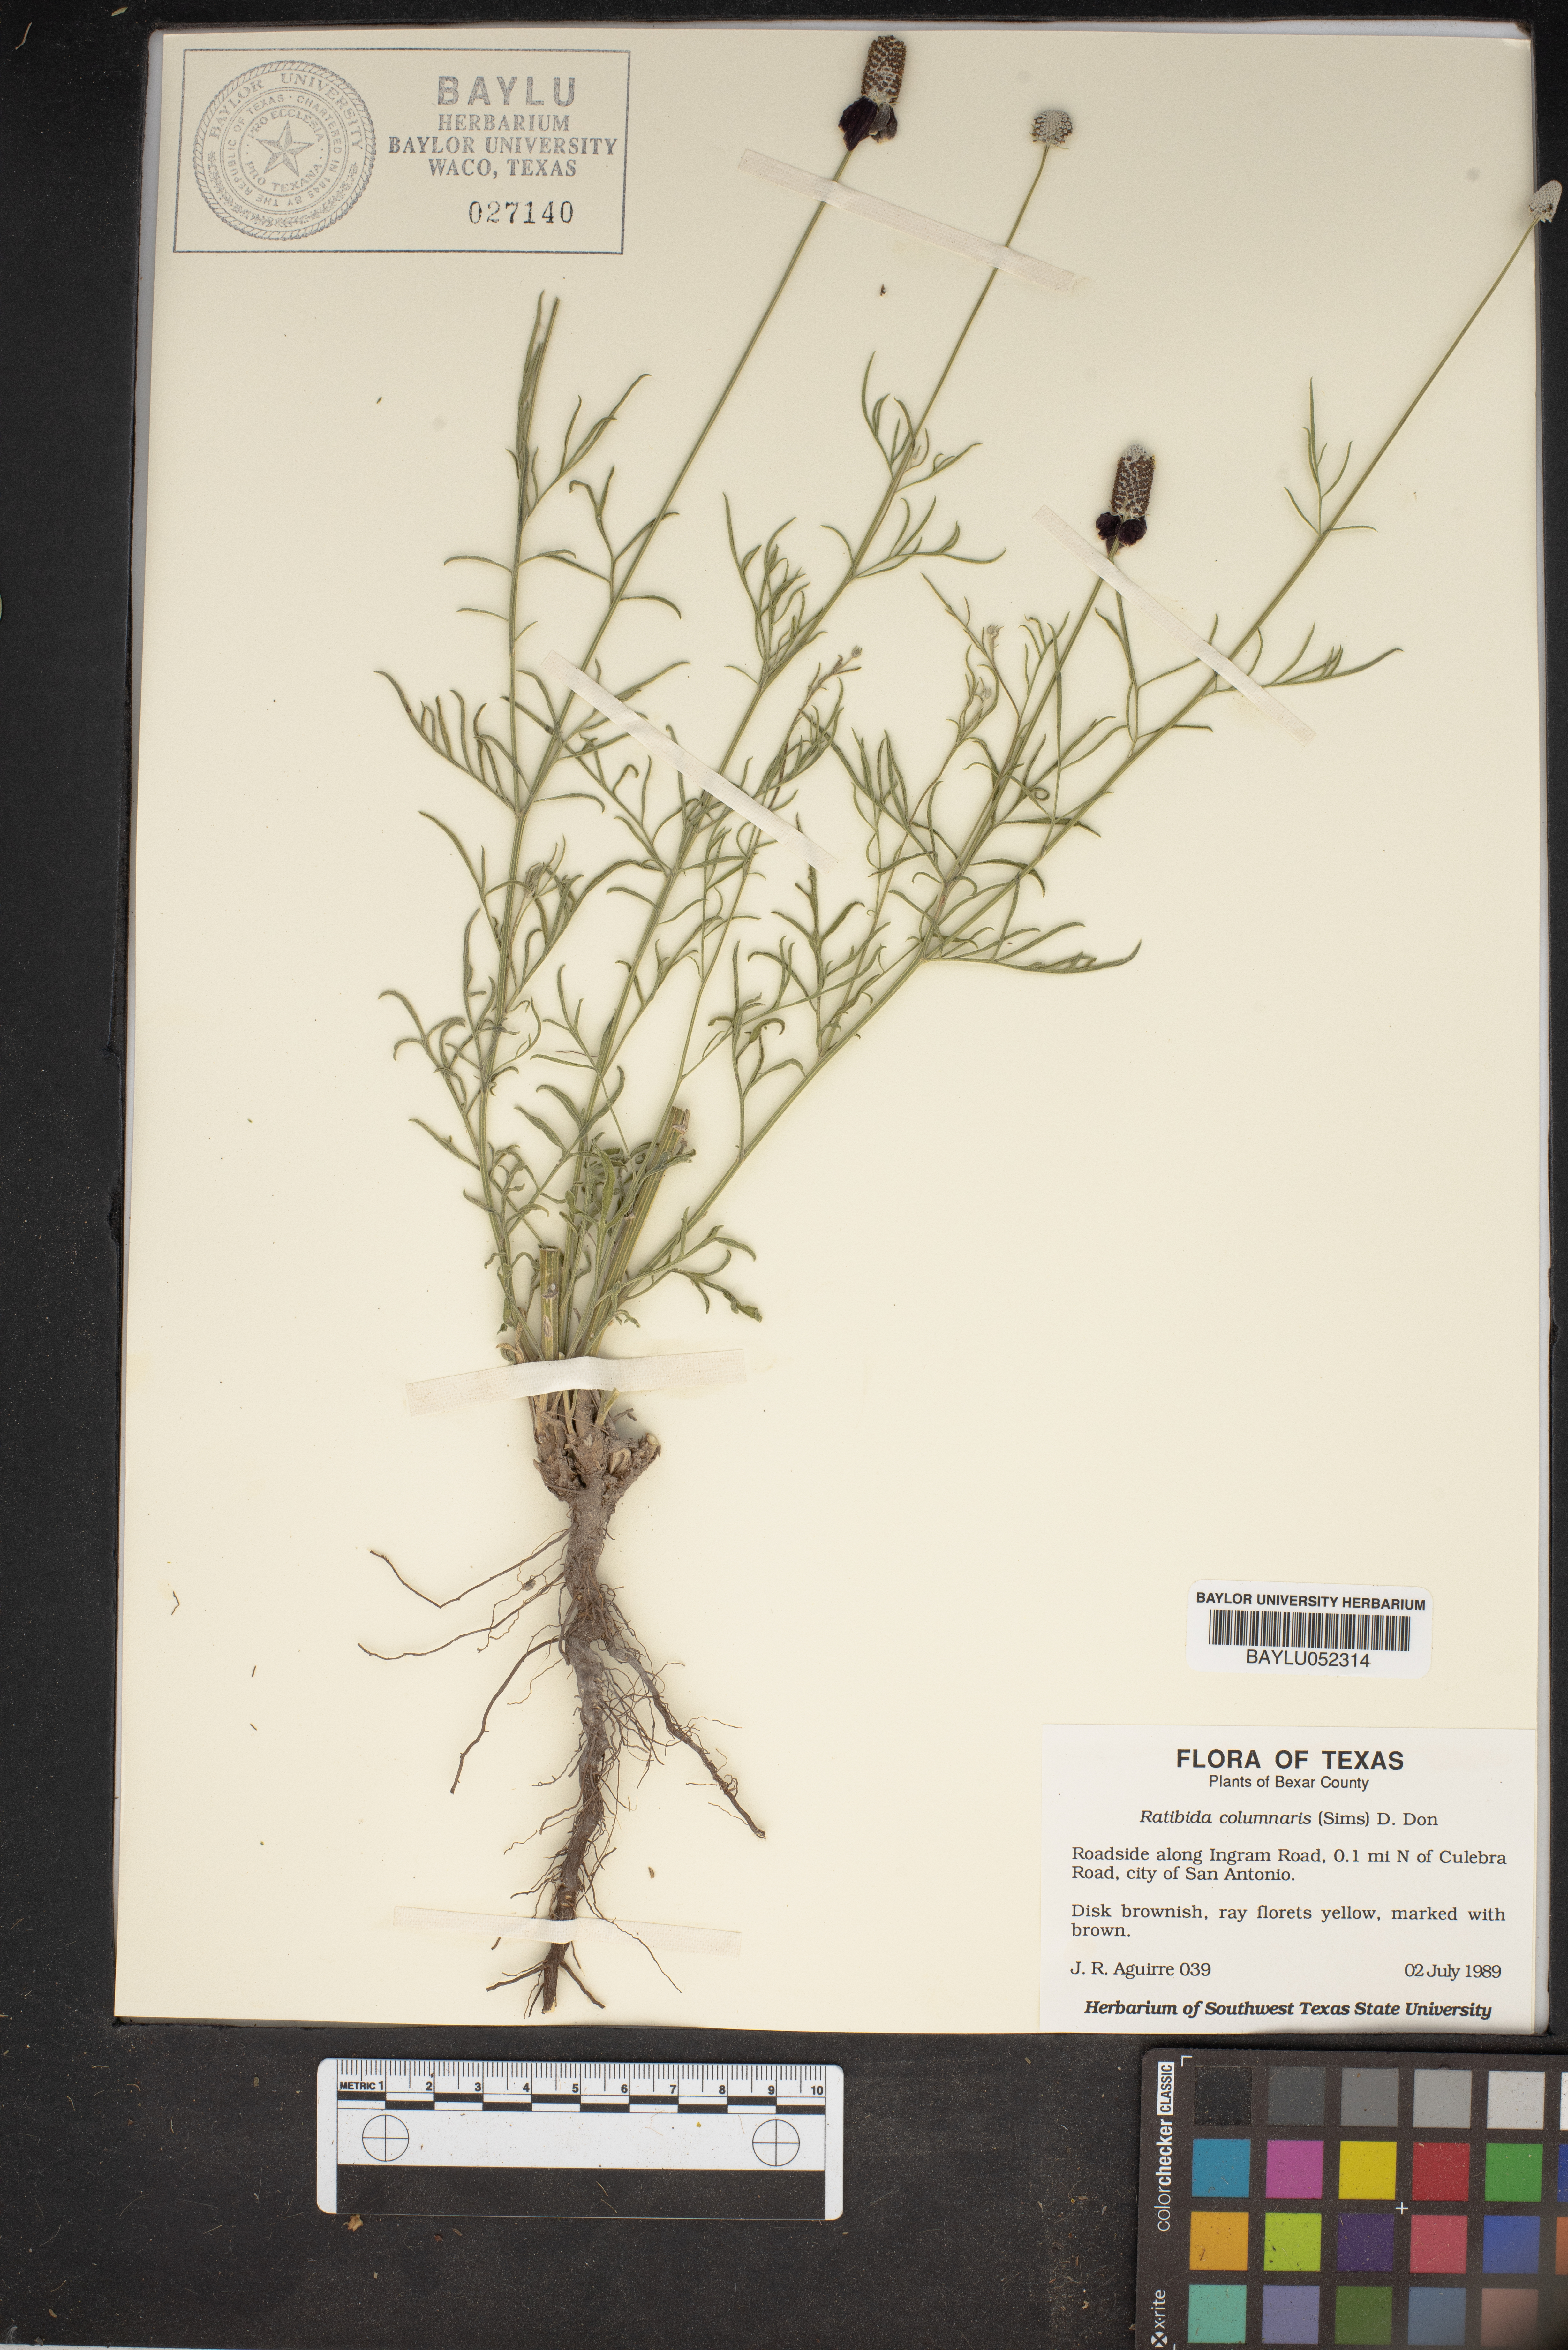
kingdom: Plantae
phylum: Tracheophyta
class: Magnoliopsida
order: Asterales
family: Asteraceae
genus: Ratibida
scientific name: Ratibida columnifera
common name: Prairie coneflower
